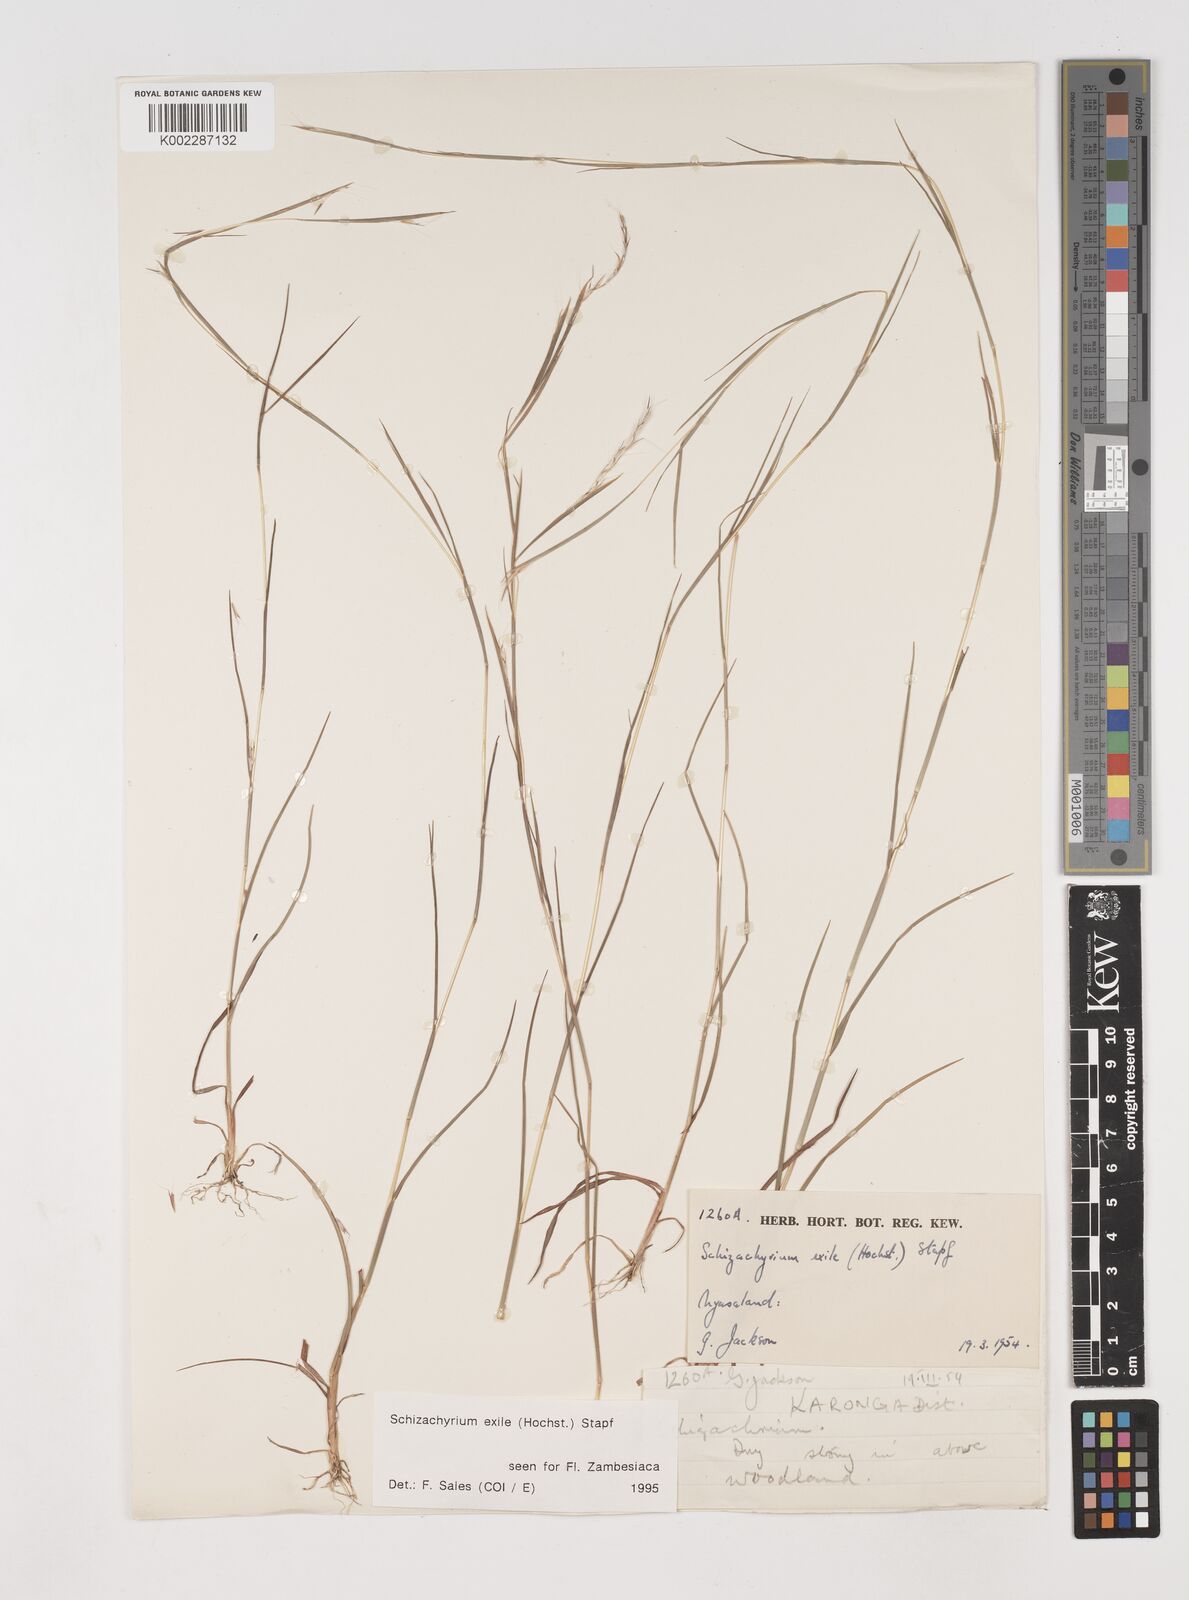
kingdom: Plantae
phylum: Tracheophyta
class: Liliopsida
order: Poales
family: Poaceae
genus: Schizachyrium
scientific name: Schizachyrium exile
